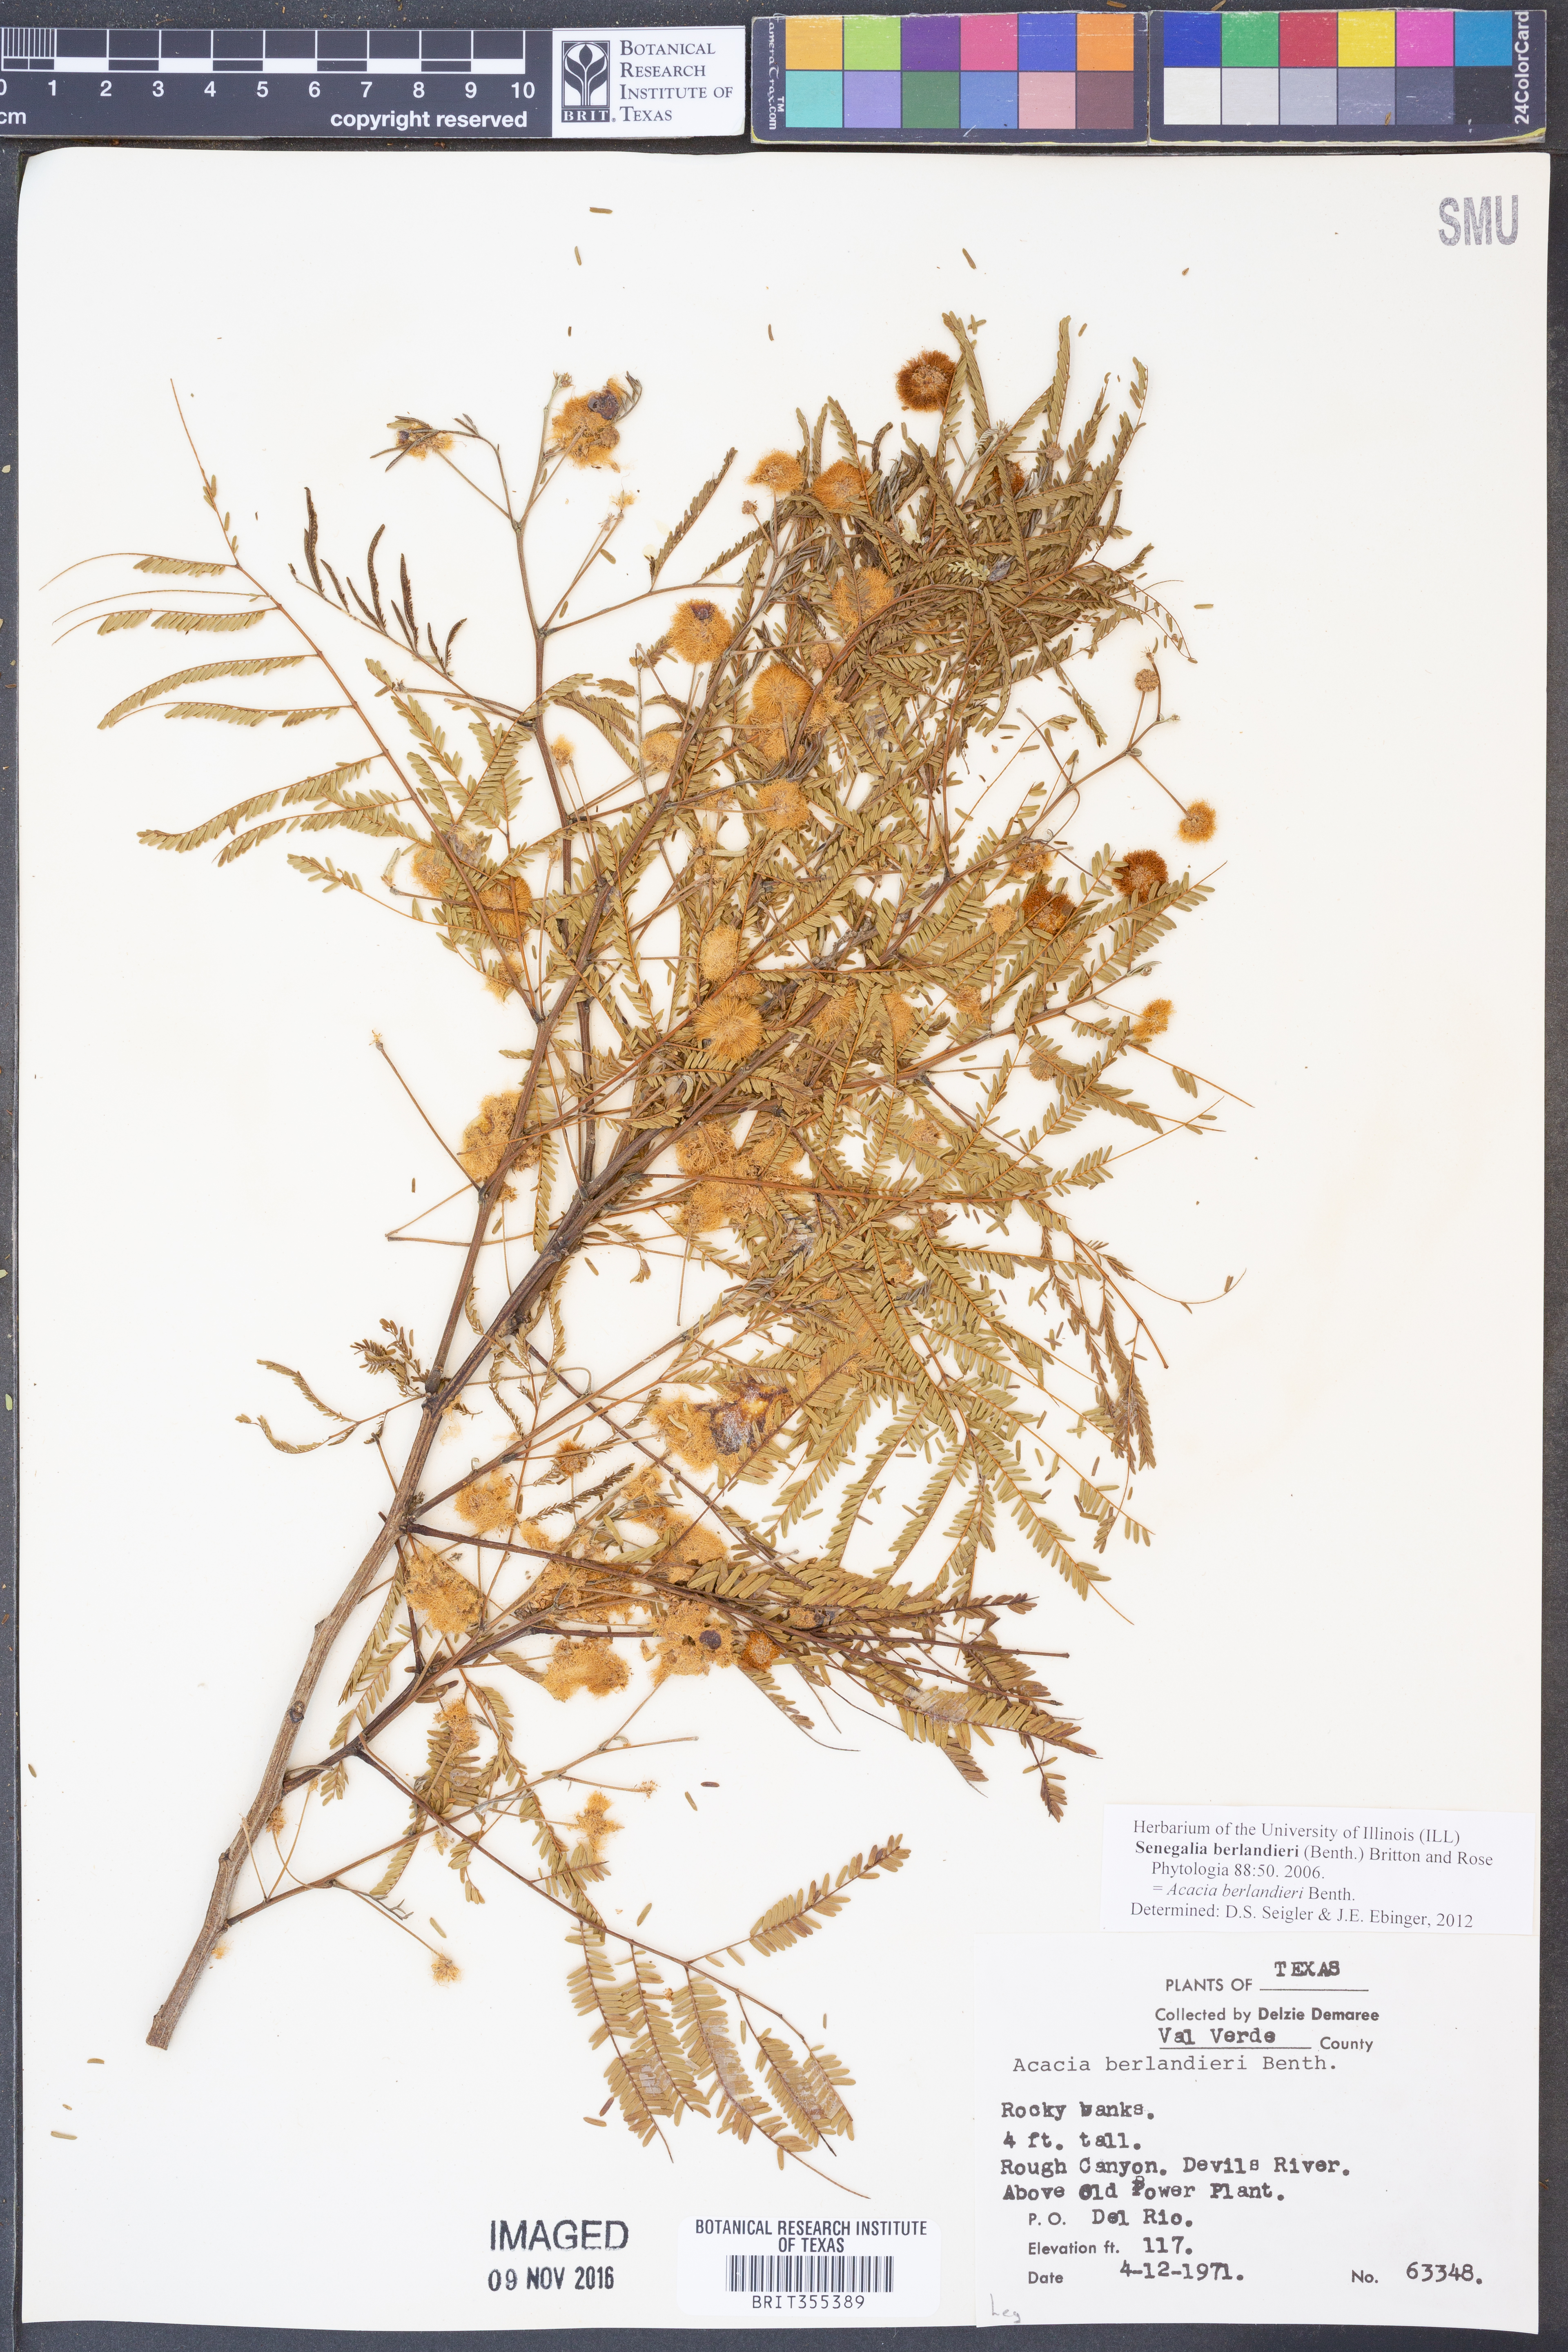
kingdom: Plantae
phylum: Tracheophyta
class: Magnoliopsida
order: Fabales
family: Fabaceae
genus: Senegalia
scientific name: Senegalia berlandieri
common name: Berlandier acacia
